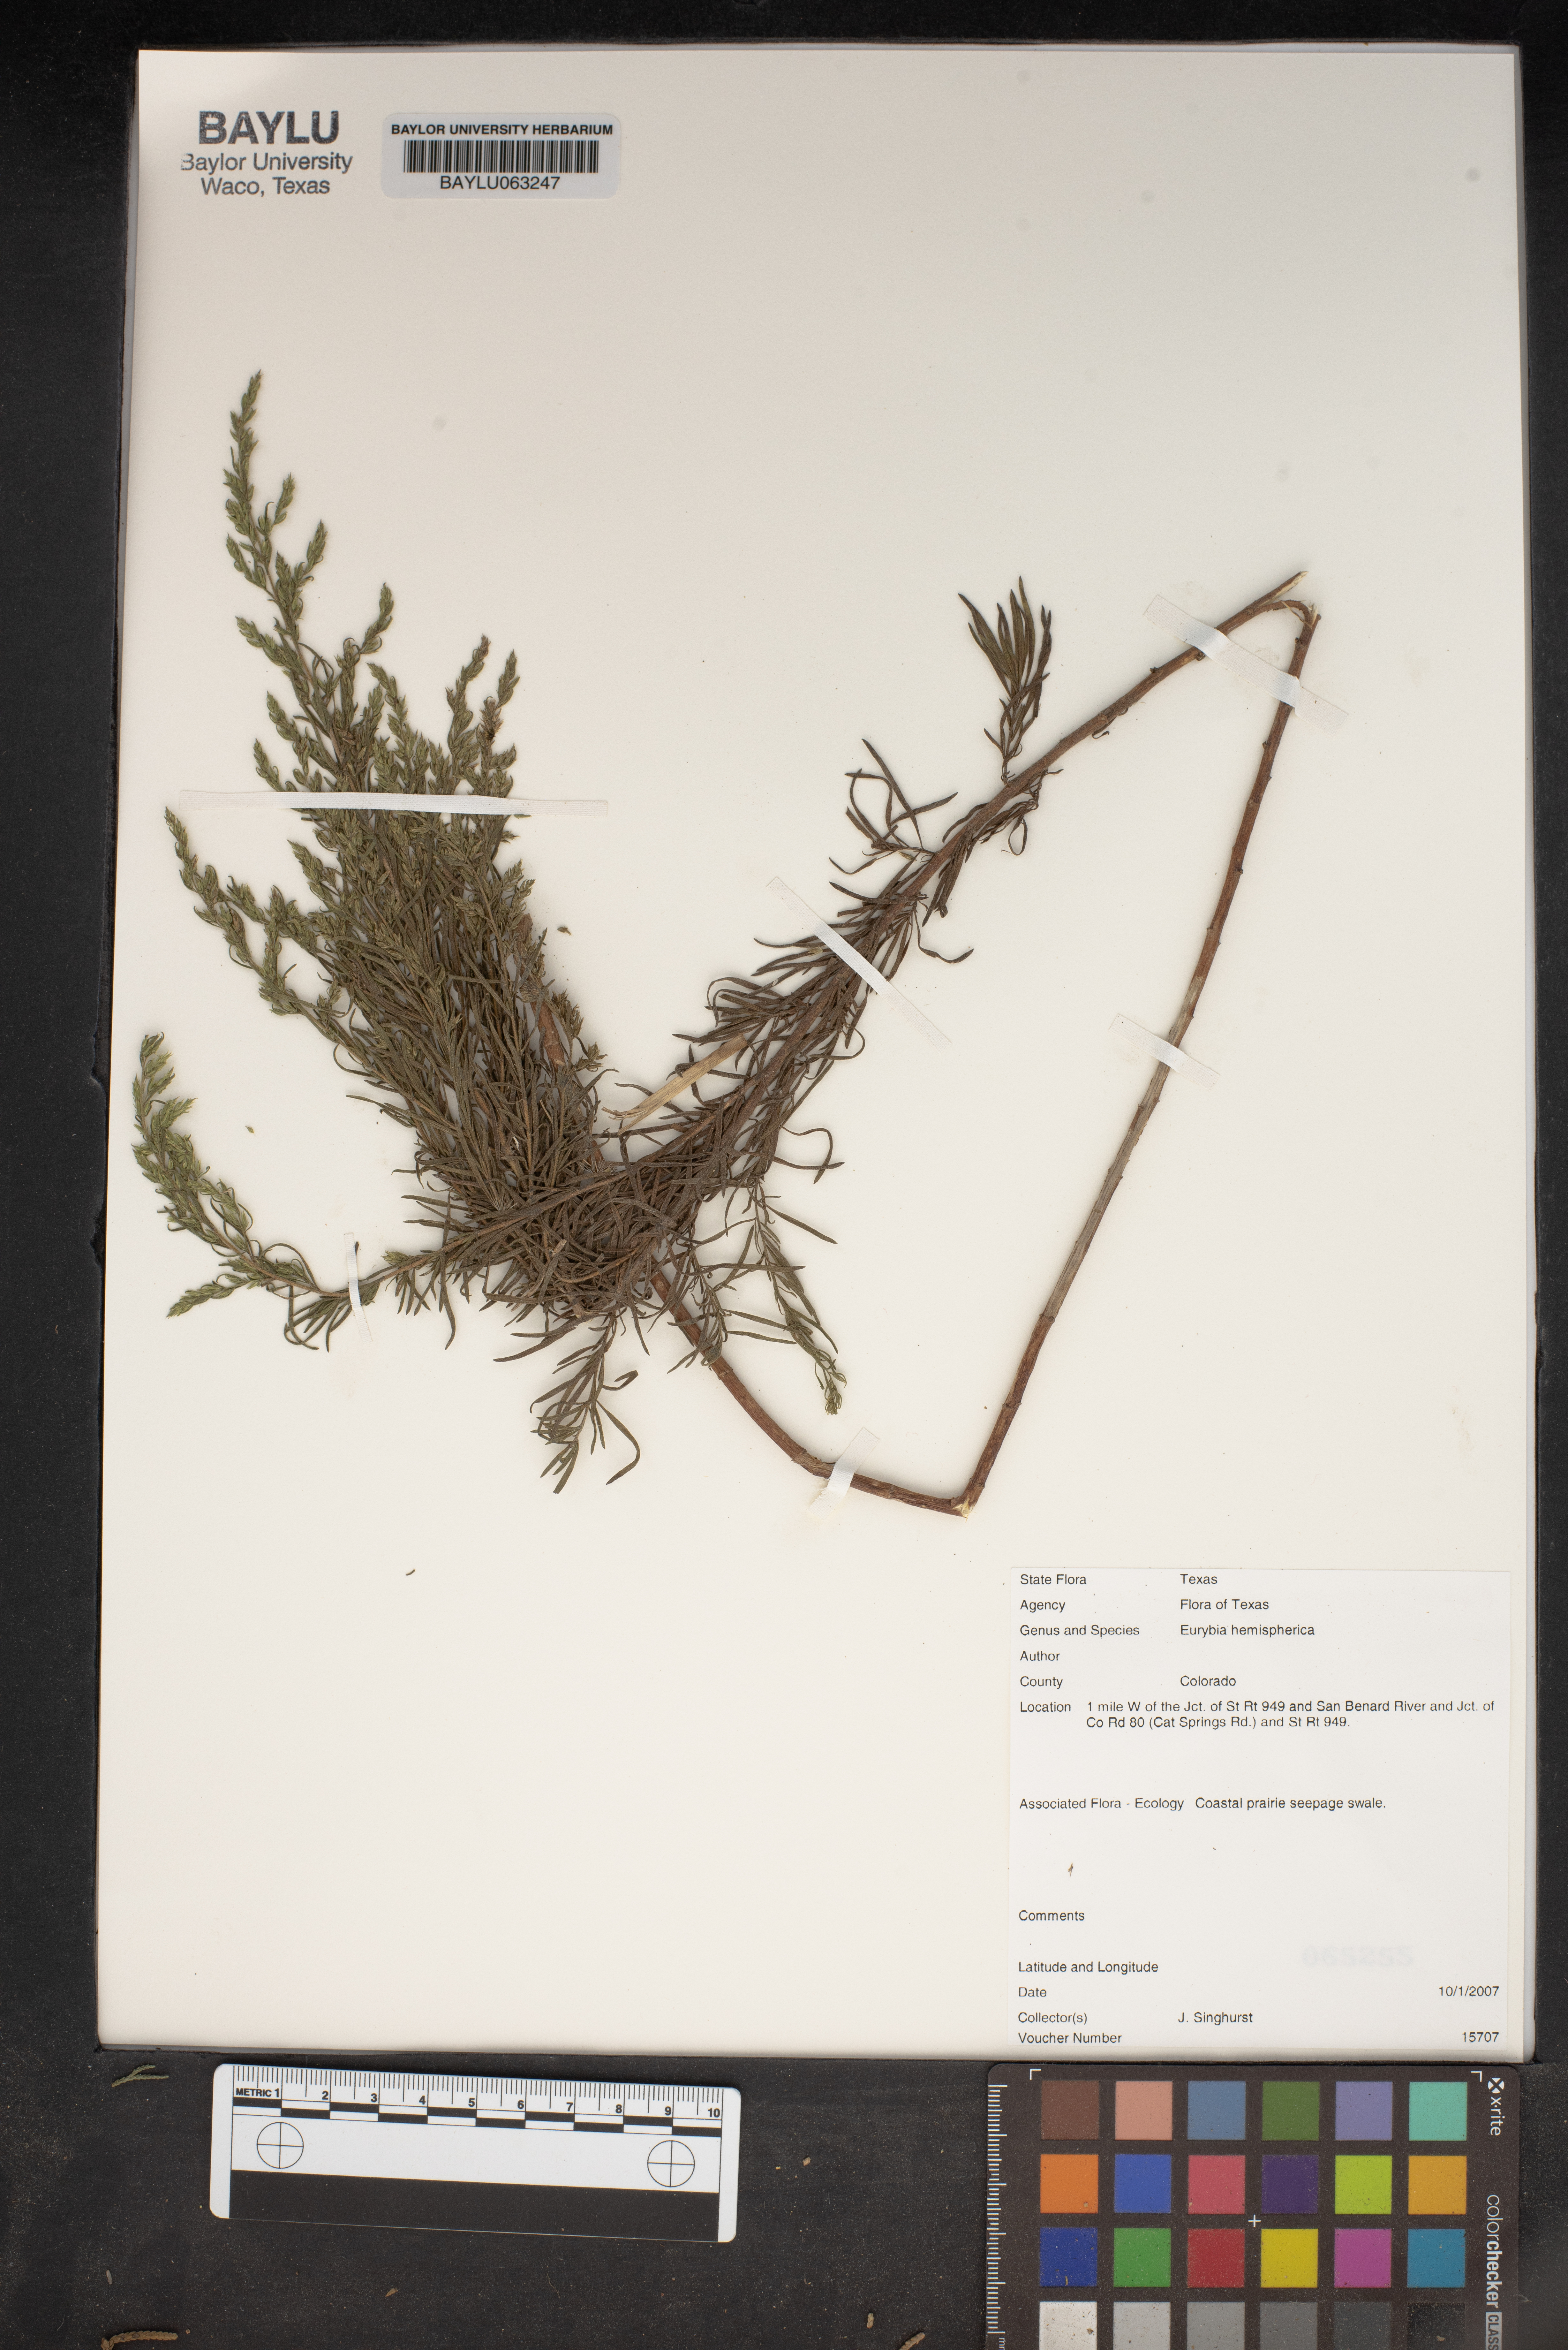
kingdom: Plantae
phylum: Tracheophyta
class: Magnoliopsida
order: Asterales
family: Asteraceae
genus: Eurybia
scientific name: Eurybia hemispherica
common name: Showy aster
